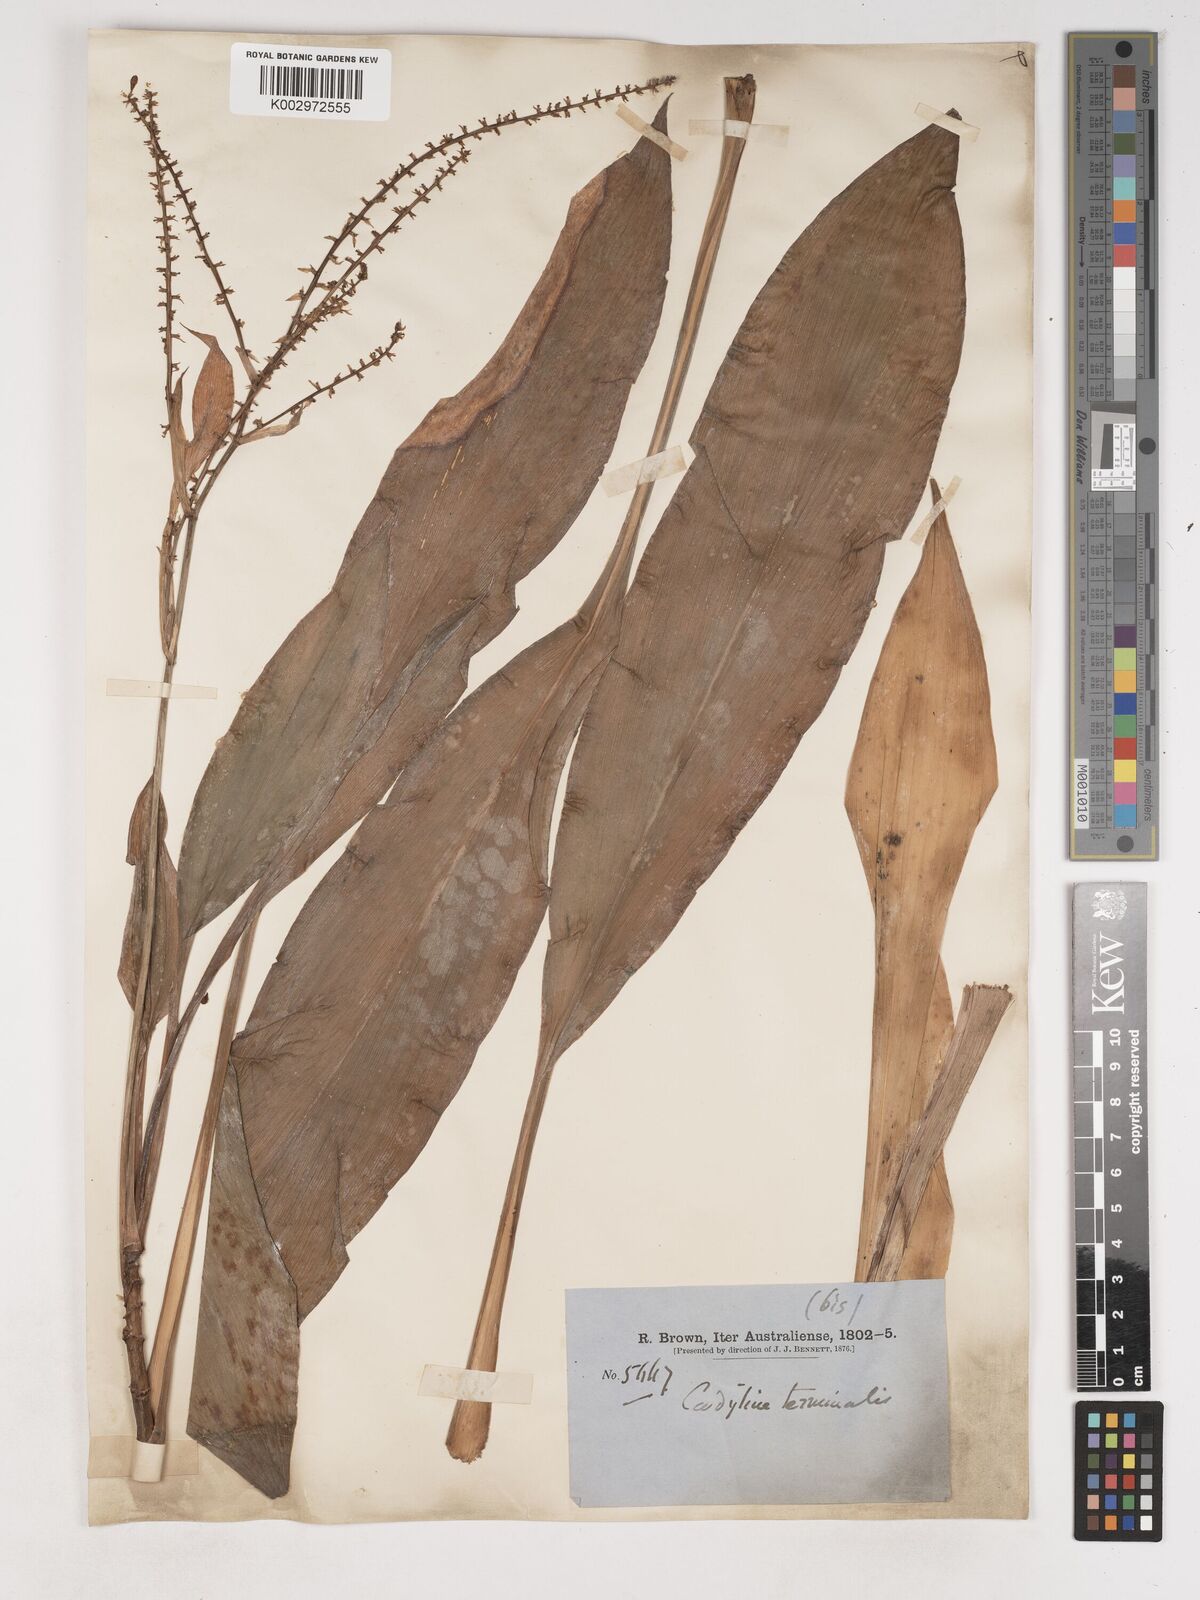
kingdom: Plantae
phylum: Tracheophyta
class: Liliopsida
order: Asparagales
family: Asparagaceae
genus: Cordyline
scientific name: Cordyline fruticosa
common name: Good-luck-plant
